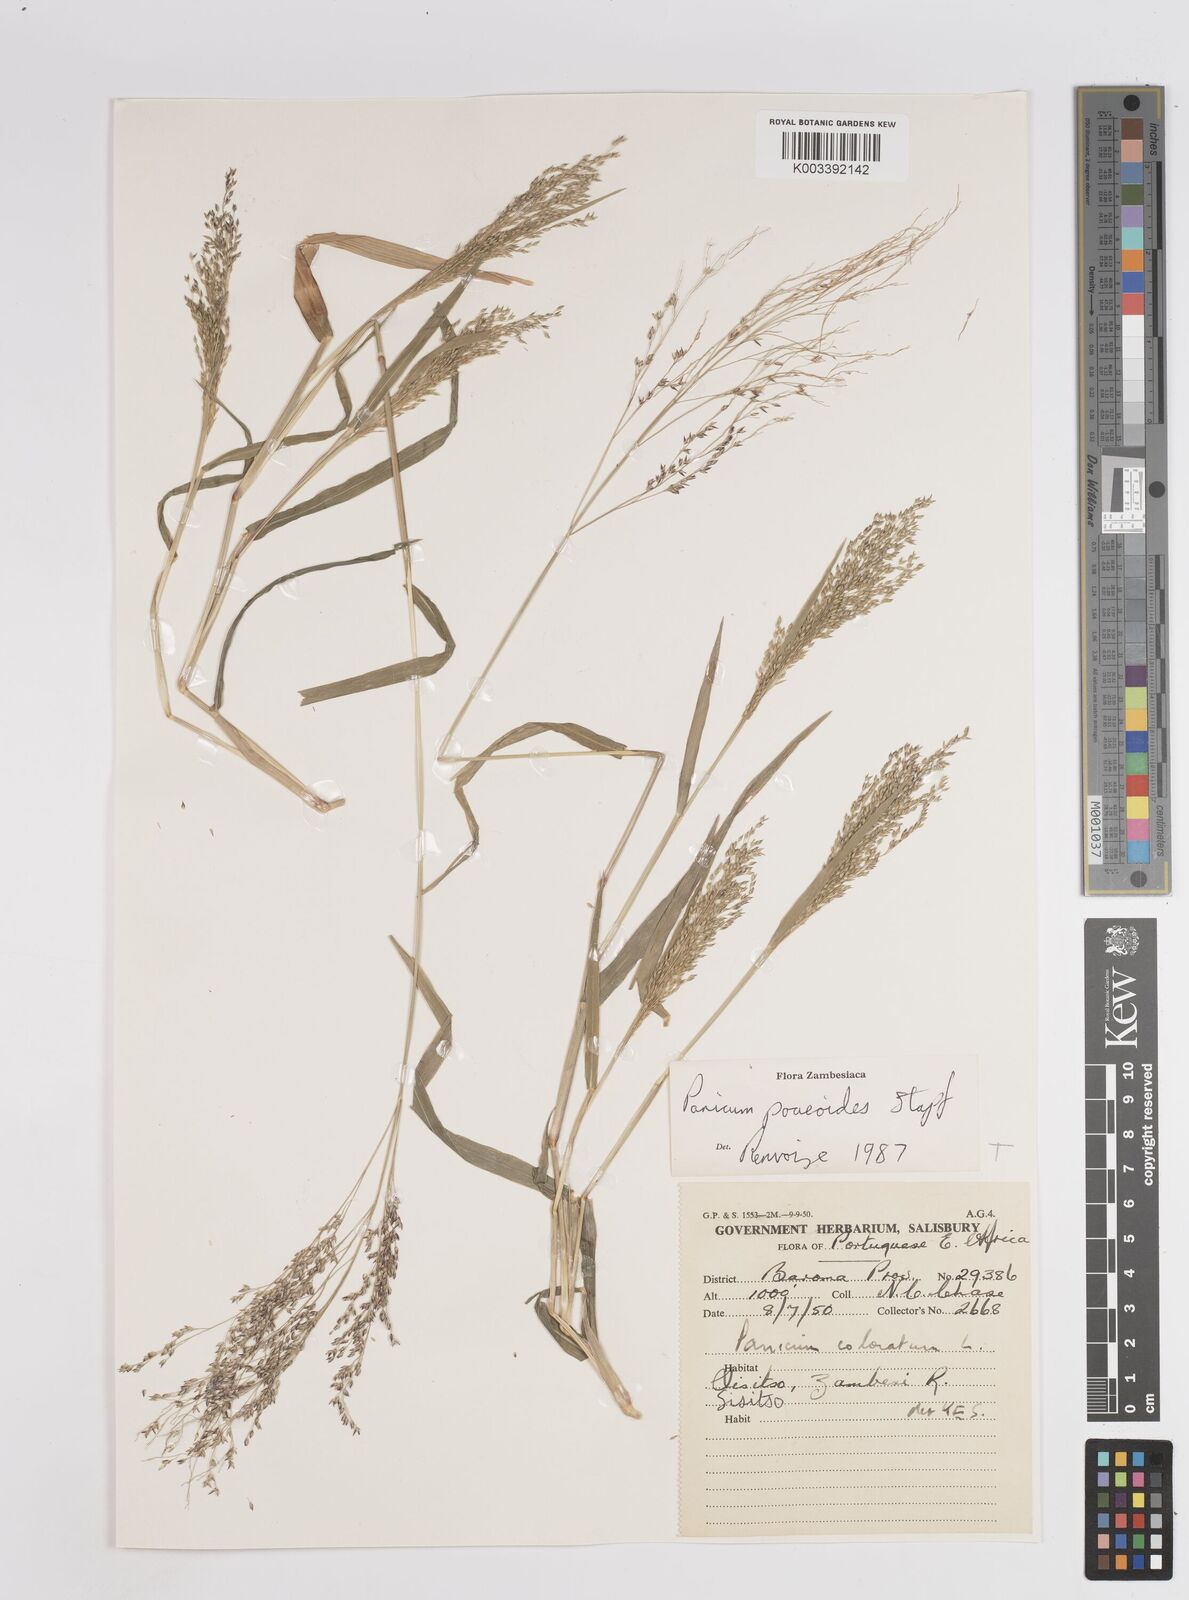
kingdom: Plantae
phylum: Tracheophyta
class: Liliopsida
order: Poales
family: Poaceae
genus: Panicum
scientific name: Panicum
